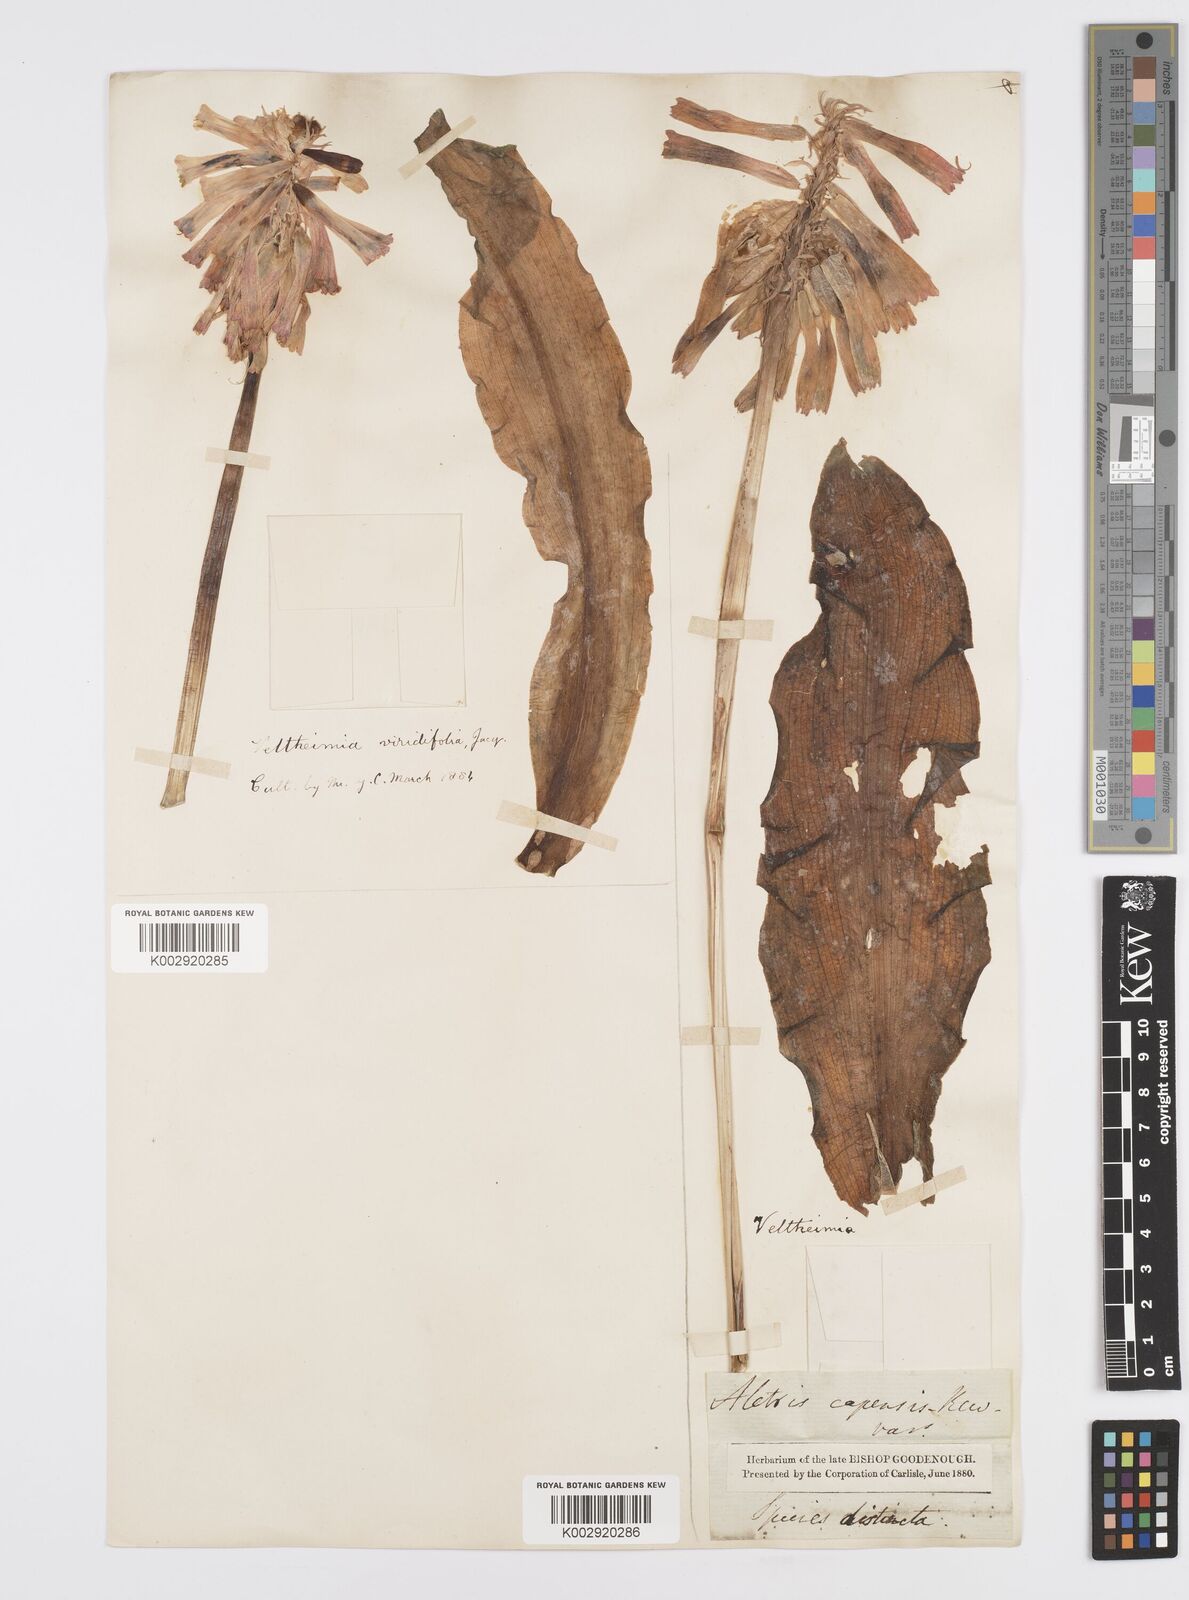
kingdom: Plantae
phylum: Tracheophyta
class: Liliopsida
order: Asparagales
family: Asparagaceae
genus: Veltheimia
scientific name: Veltheimia bracteata
